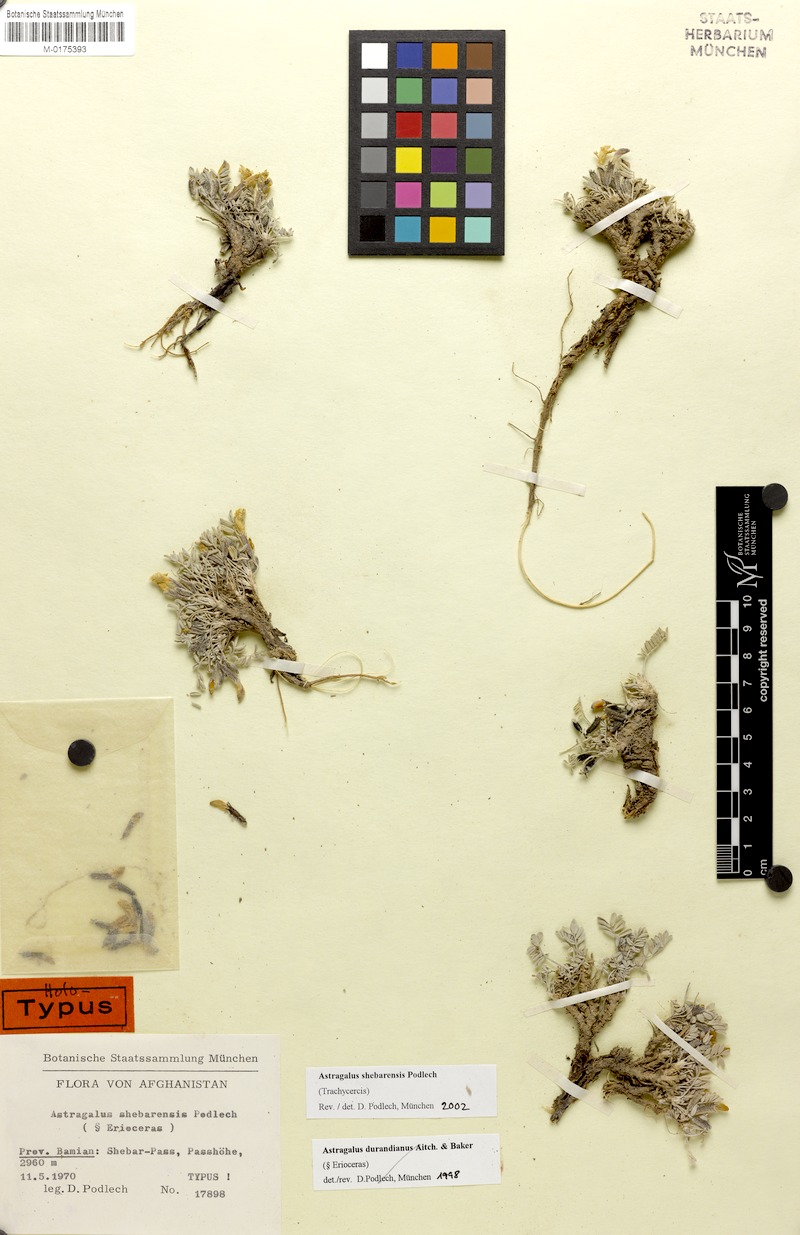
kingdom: Plantae
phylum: Tracheophyta
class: Magnoliopsida
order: Fabales
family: Fabaceae
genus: Astragalus
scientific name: Astragalus shebarensis
